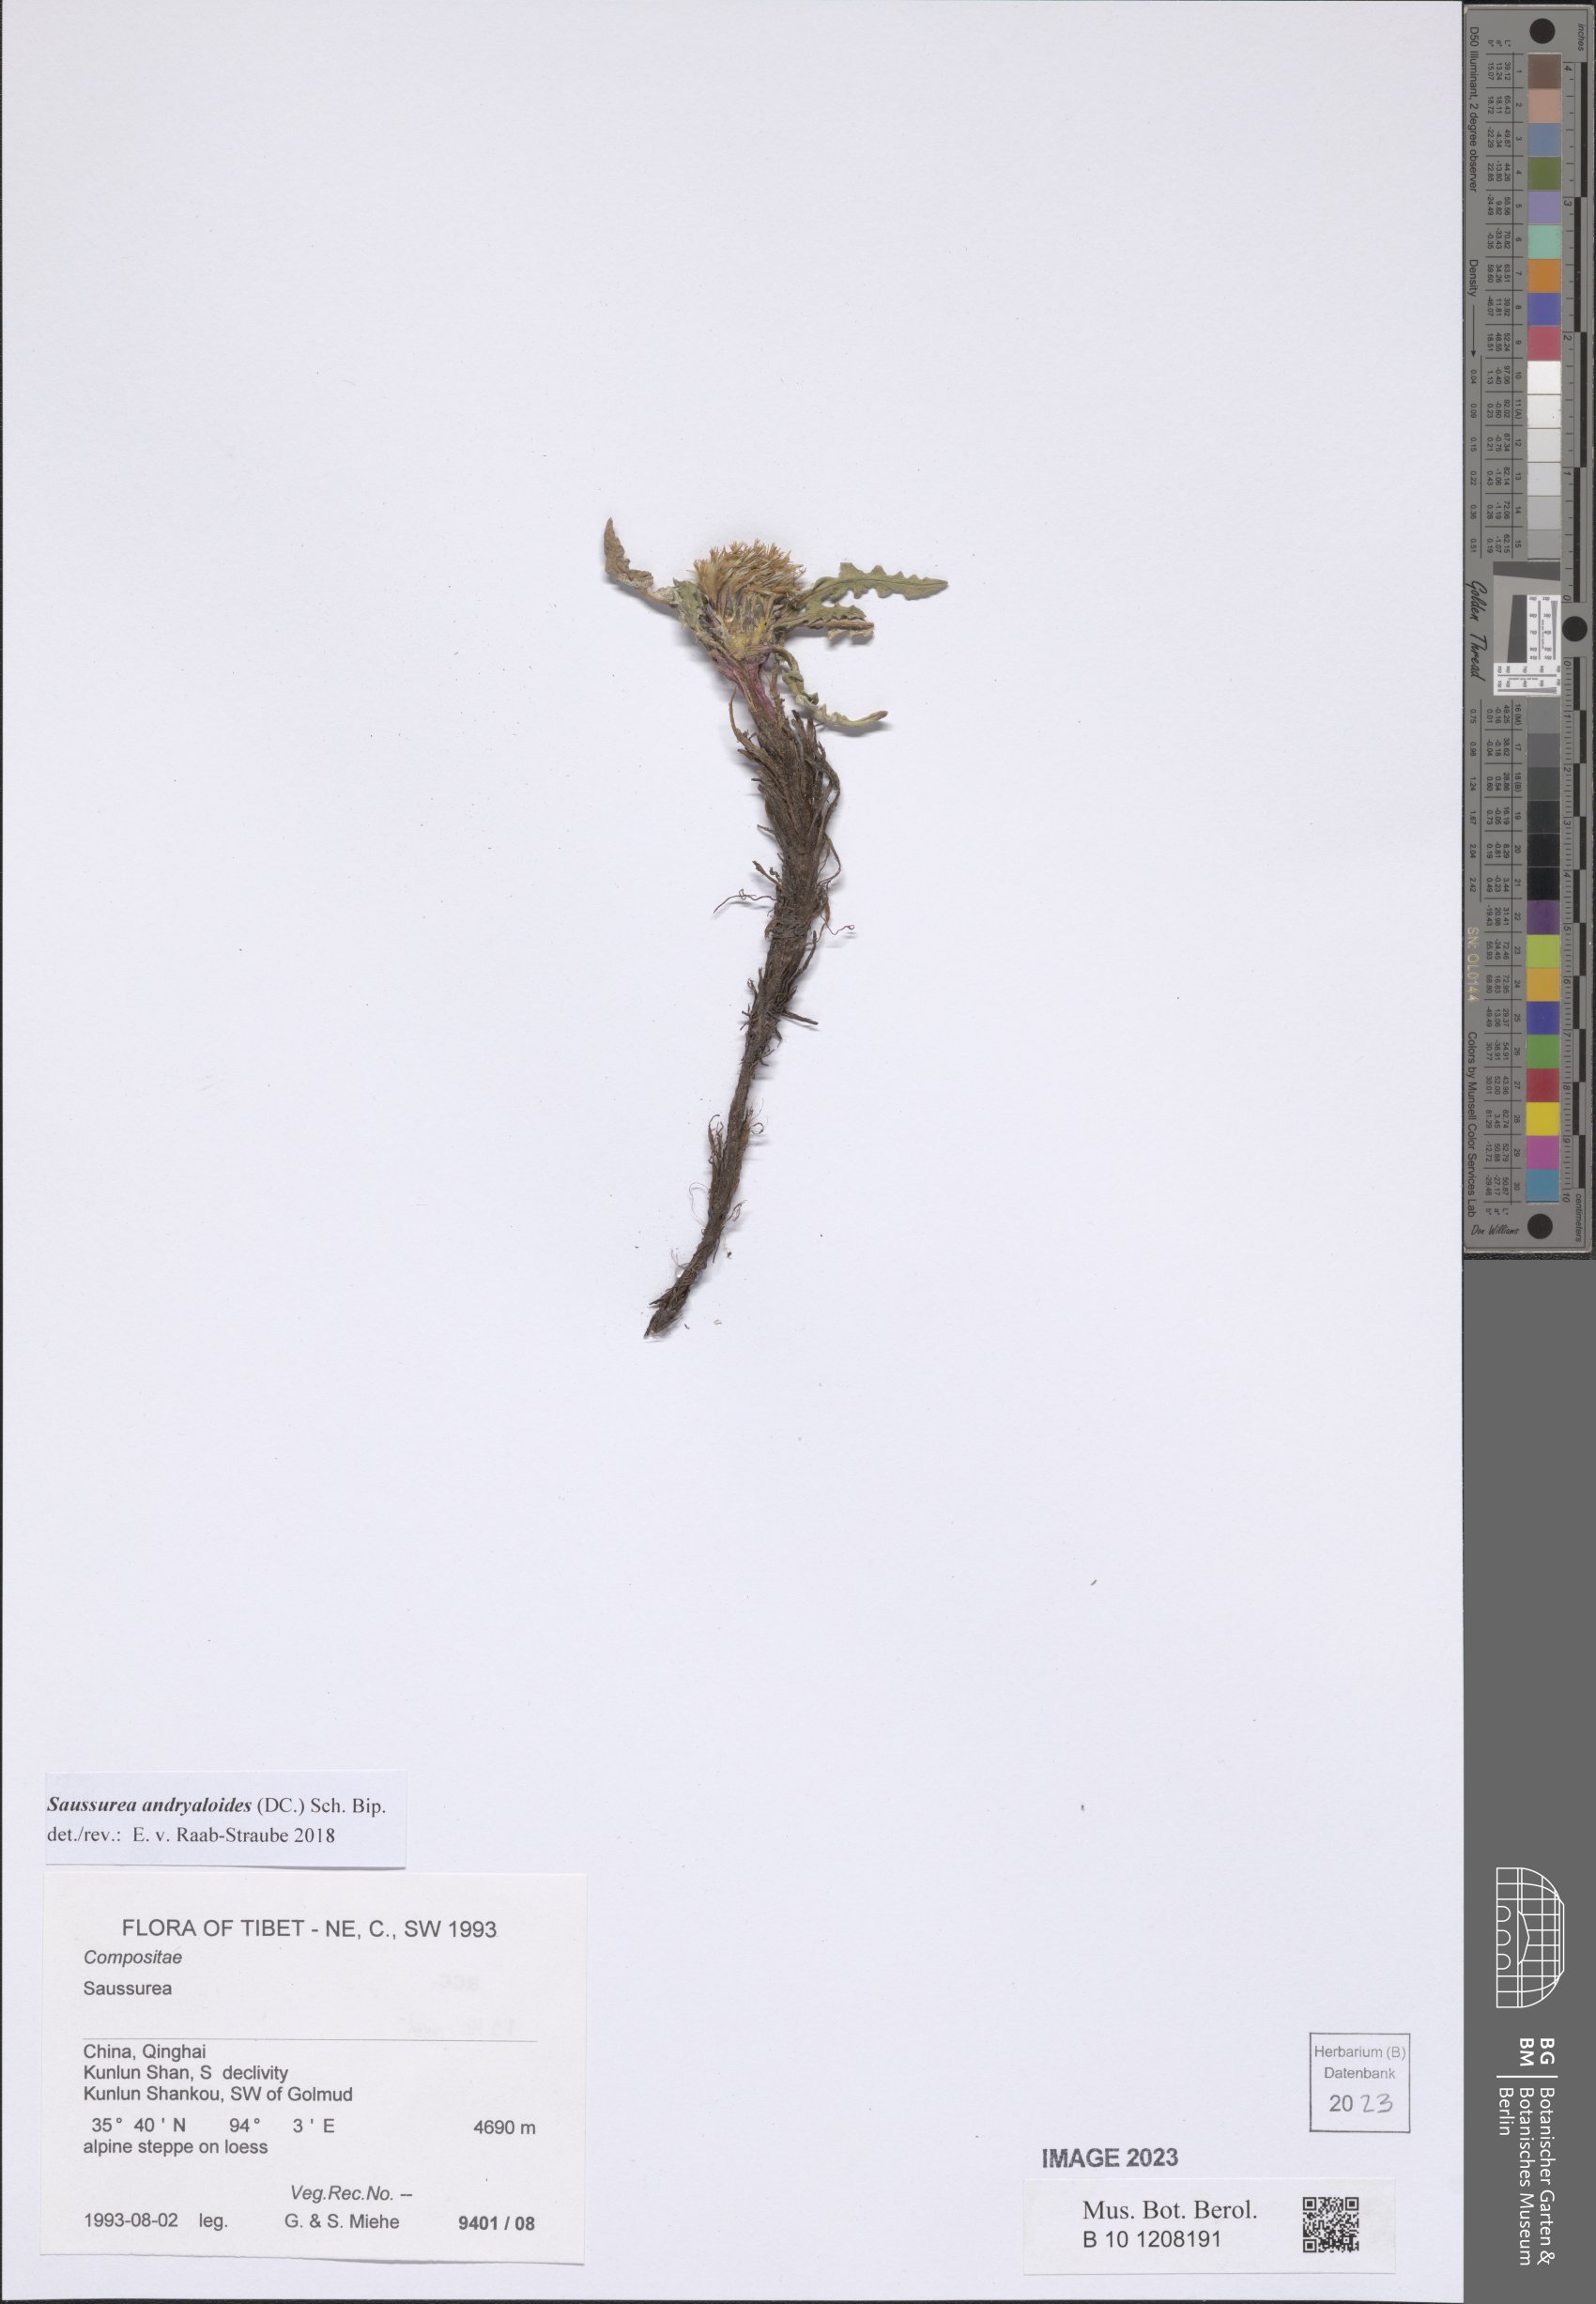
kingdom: Plantae
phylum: Tracheophyta
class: Magnoliopsida
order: Asterales
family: Asteraceae
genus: Saussurea
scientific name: Saussurea andryaloides
